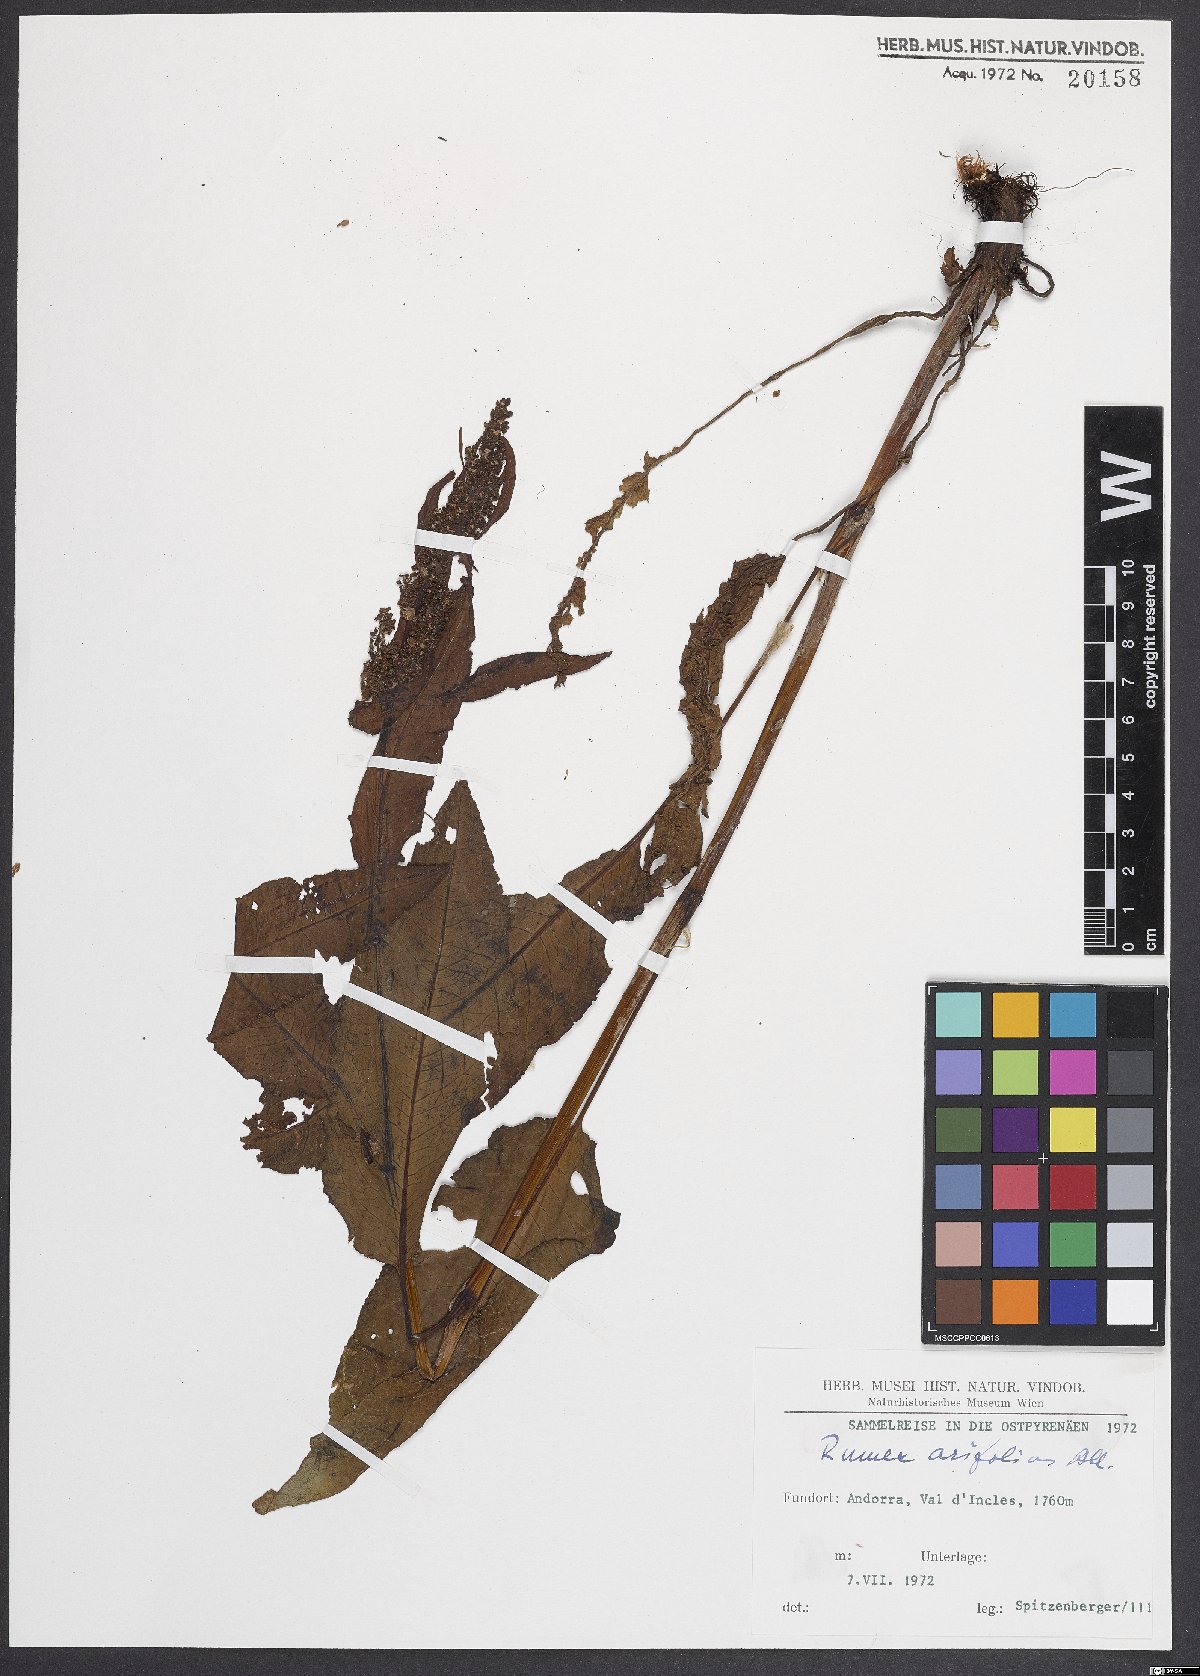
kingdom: Plantae
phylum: Tracheophyta
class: Magnoliopsida
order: Caryophyllales
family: Polygonaceae
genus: Rumex
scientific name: Rumex arifolius
